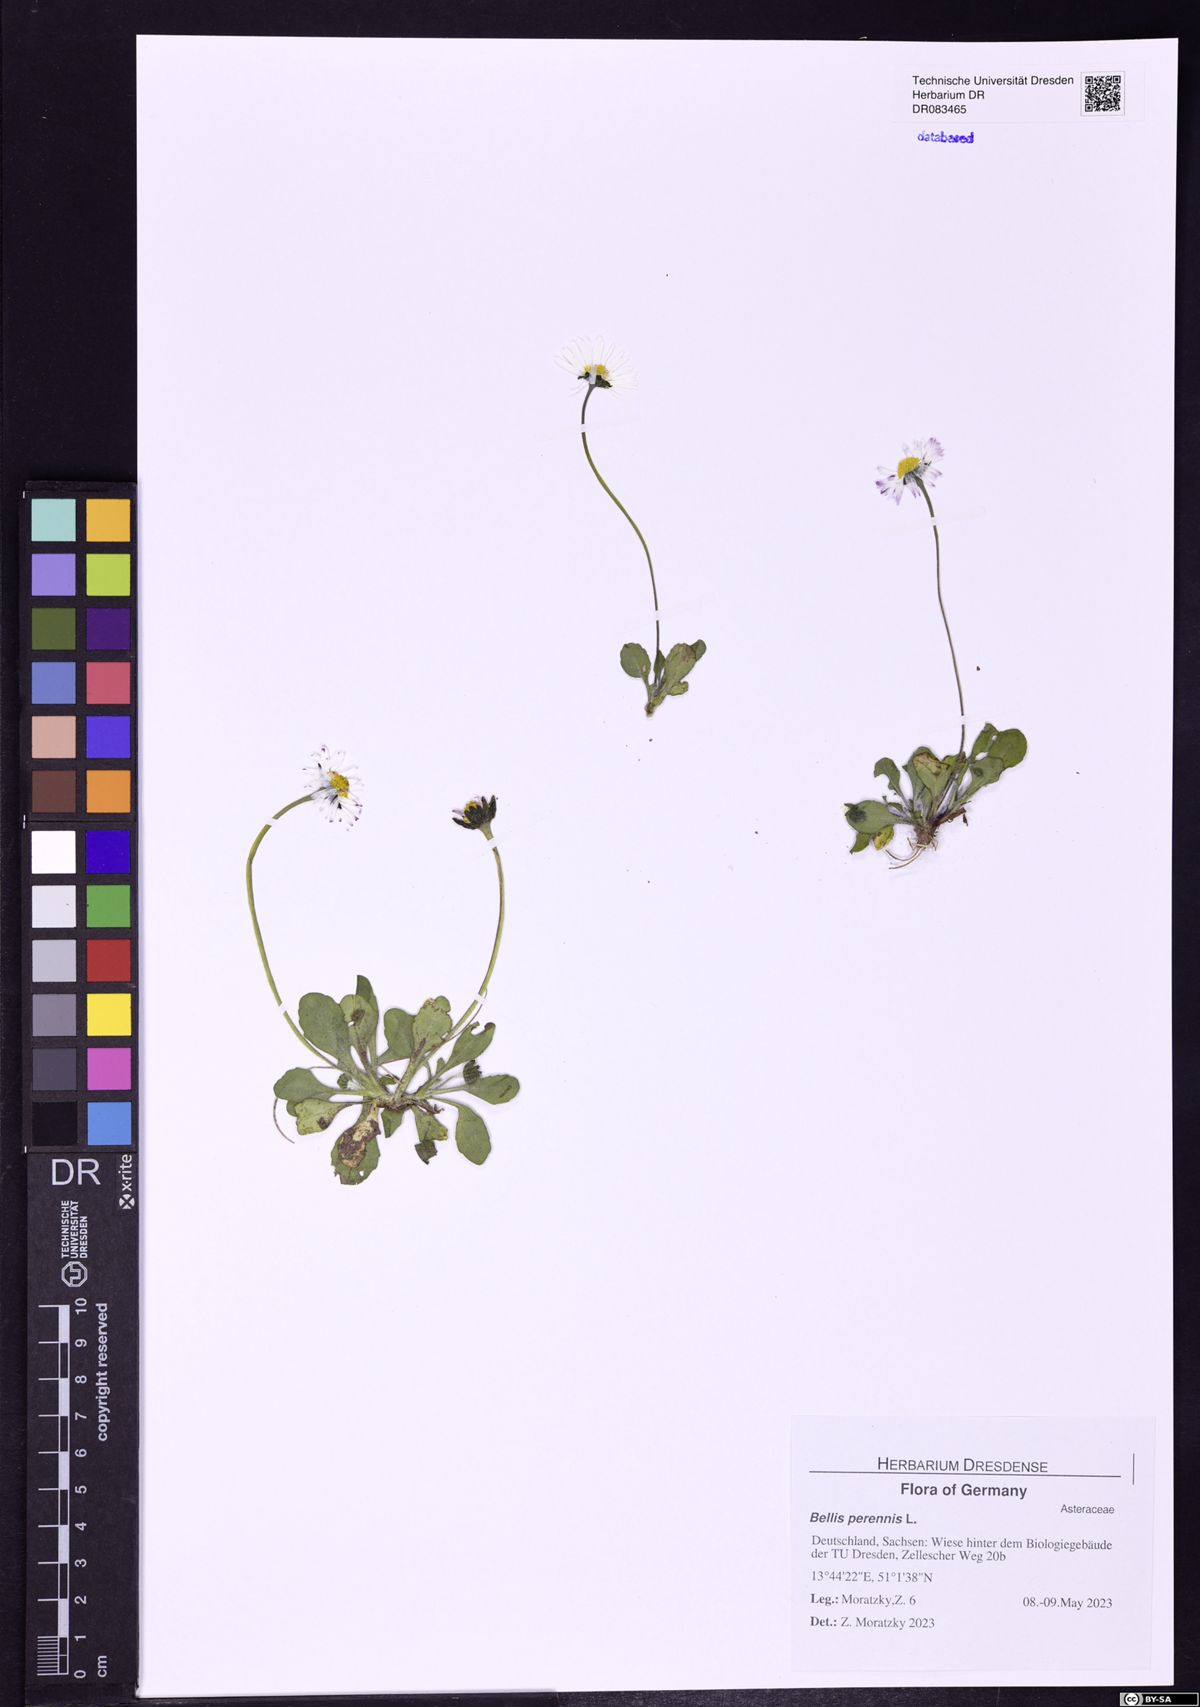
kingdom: Plantae
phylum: Tracheophyta
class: Magnoliopsida
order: Asterales
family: Asteraceae
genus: Bellis
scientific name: Bellis perennis
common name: Lawndaisy
